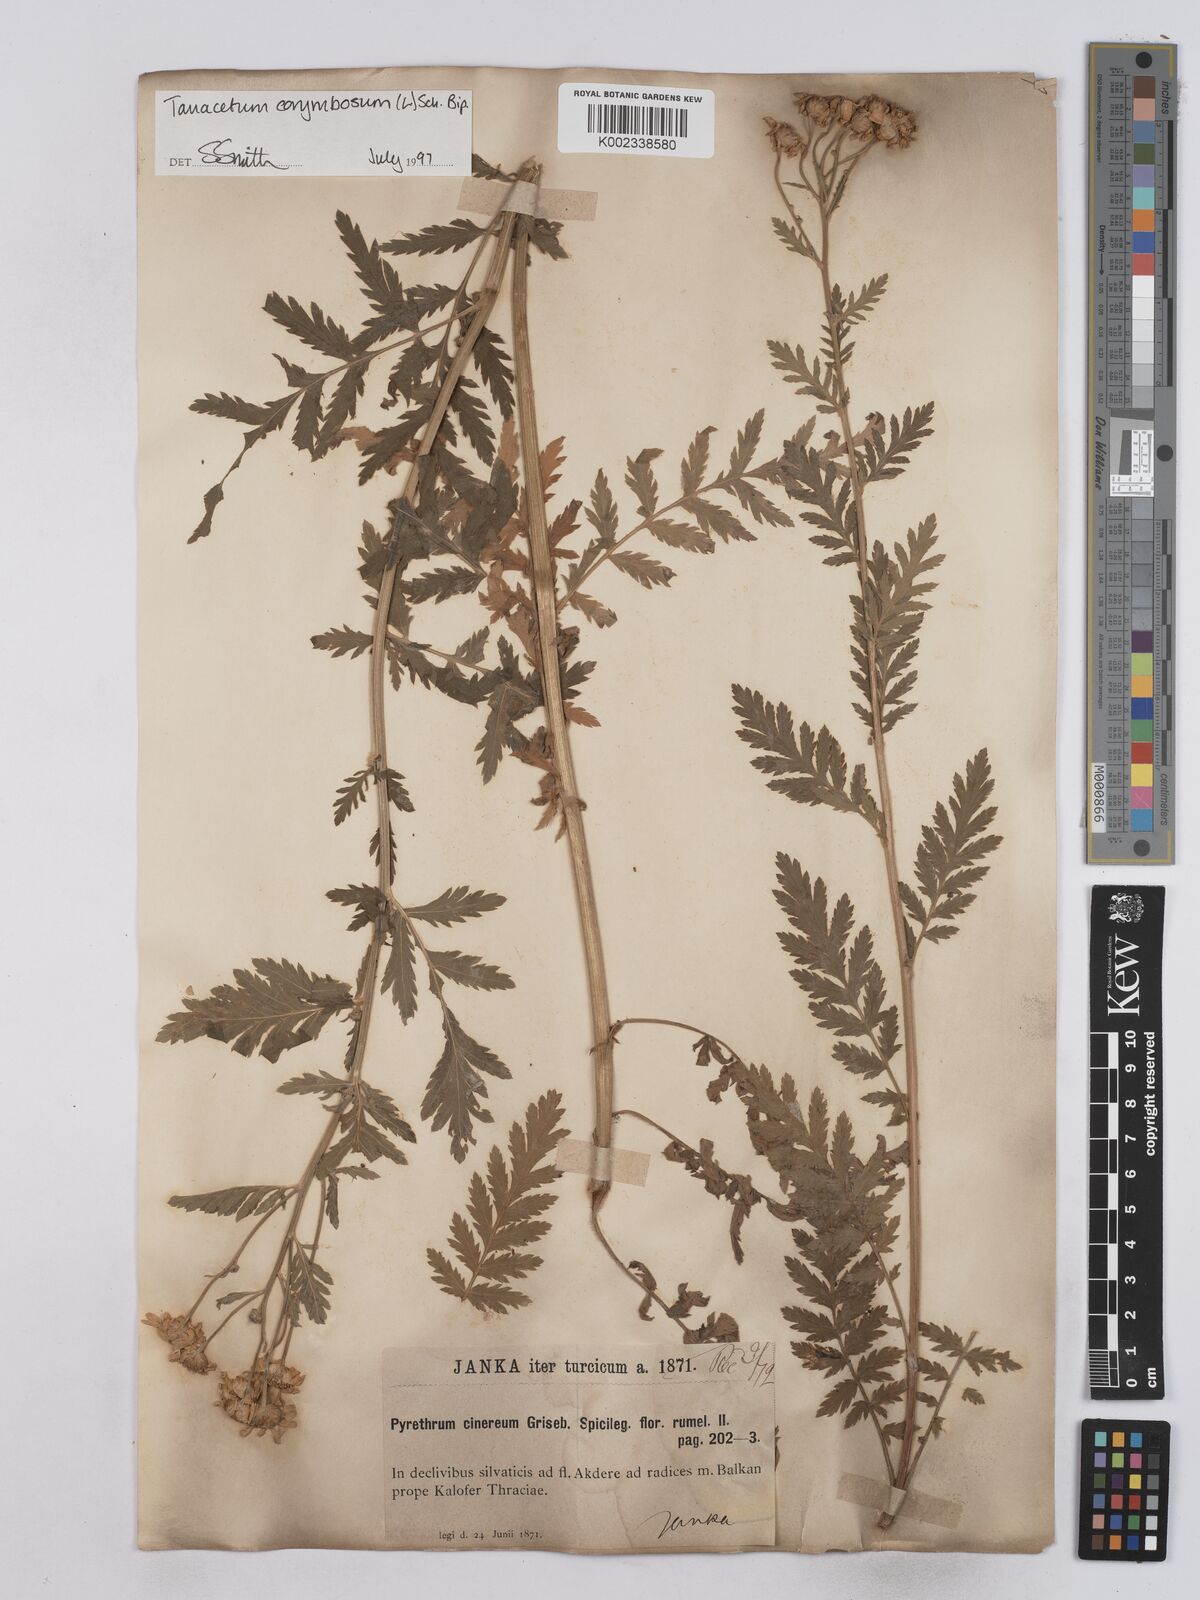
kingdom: Plantae
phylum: Tracheophyta
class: Magnoliopsida
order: Asterales
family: Asteraceae
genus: Tanacetum
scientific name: Tanacetum corymbosum
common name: Scentless feverfew
